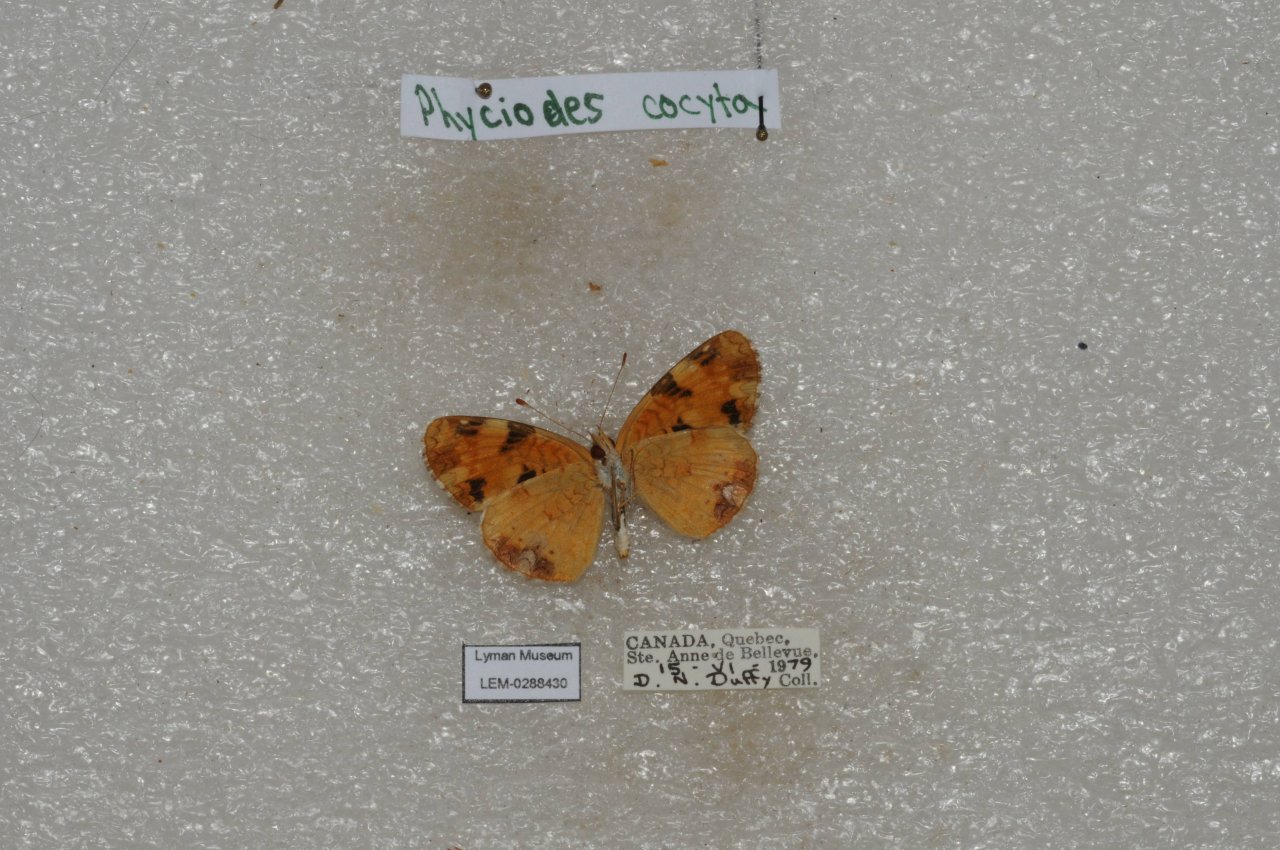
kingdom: Animalia
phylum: Arthropoda
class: Insecta
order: Lepidoptera
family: Nymphalidae
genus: Phyciodes
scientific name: Phyciodes tharos
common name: Northern Crescent
